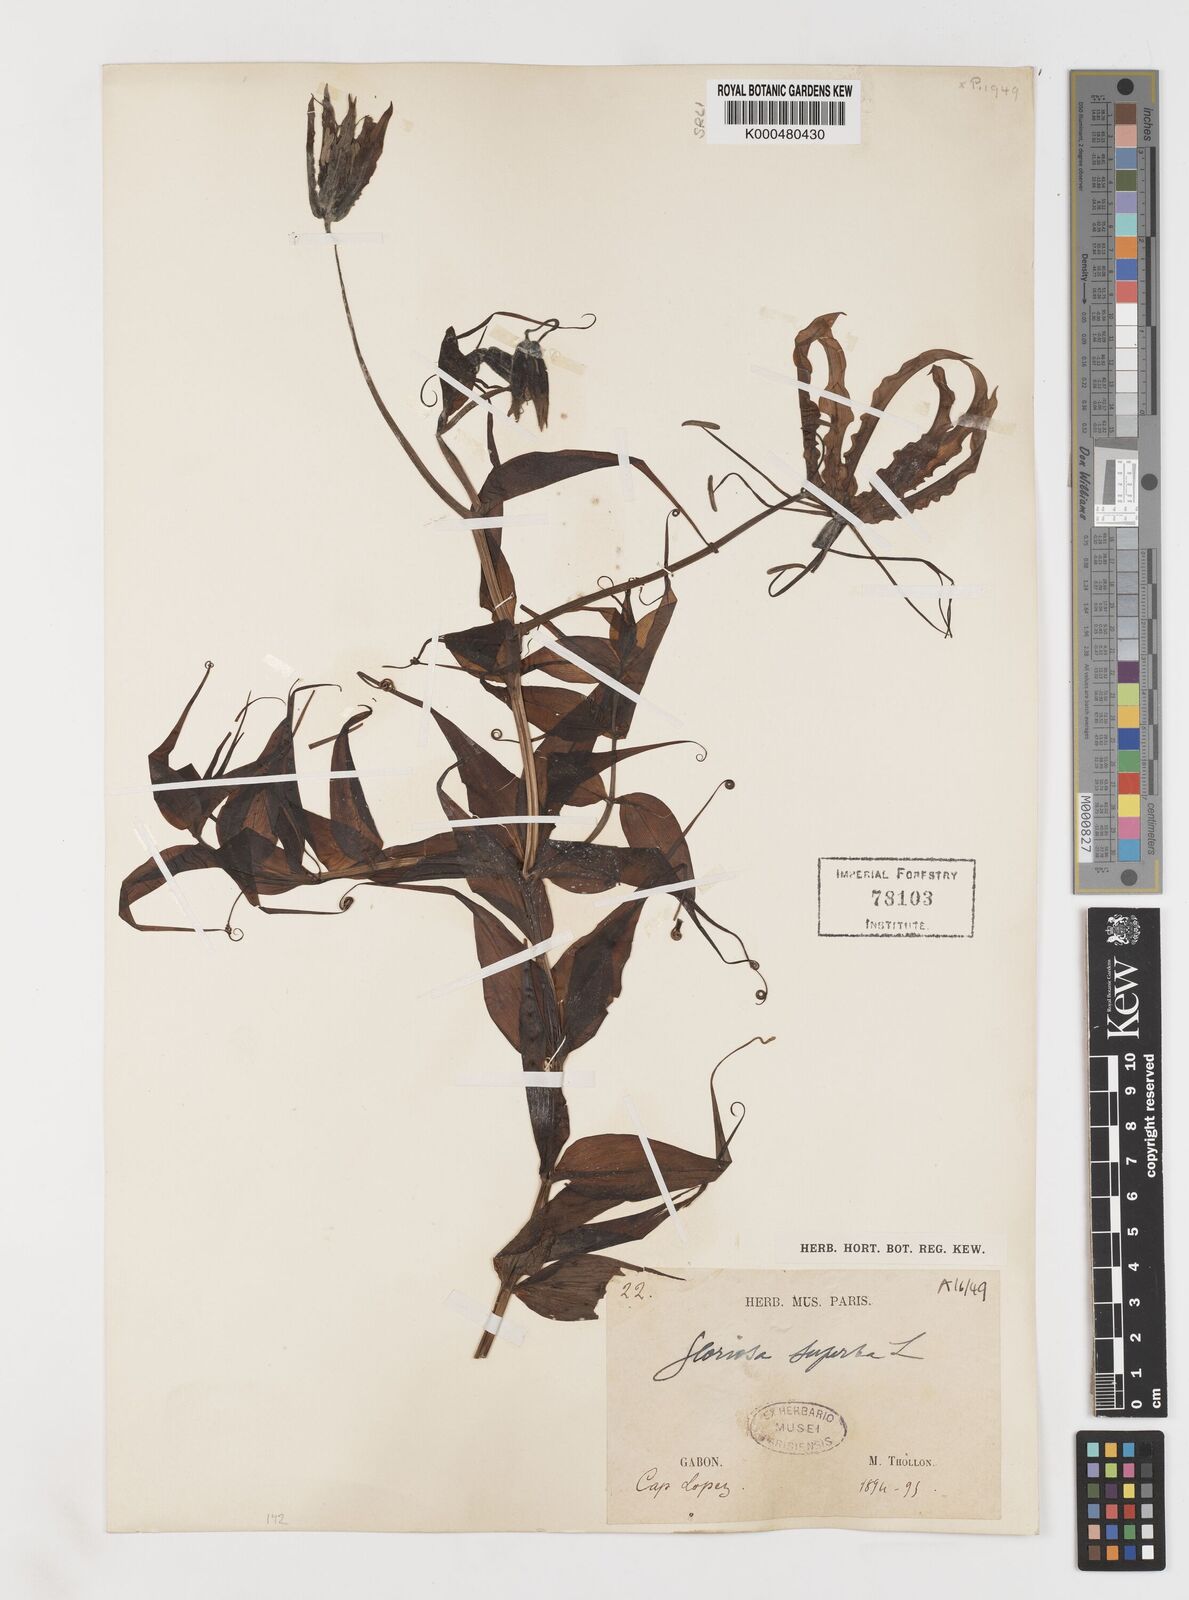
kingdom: Plantae
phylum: Tracheophyta
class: Liliopsida
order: Liliales
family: Colchicaceae
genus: Gloriosa
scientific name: Gloriosa superba
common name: Flame lily
